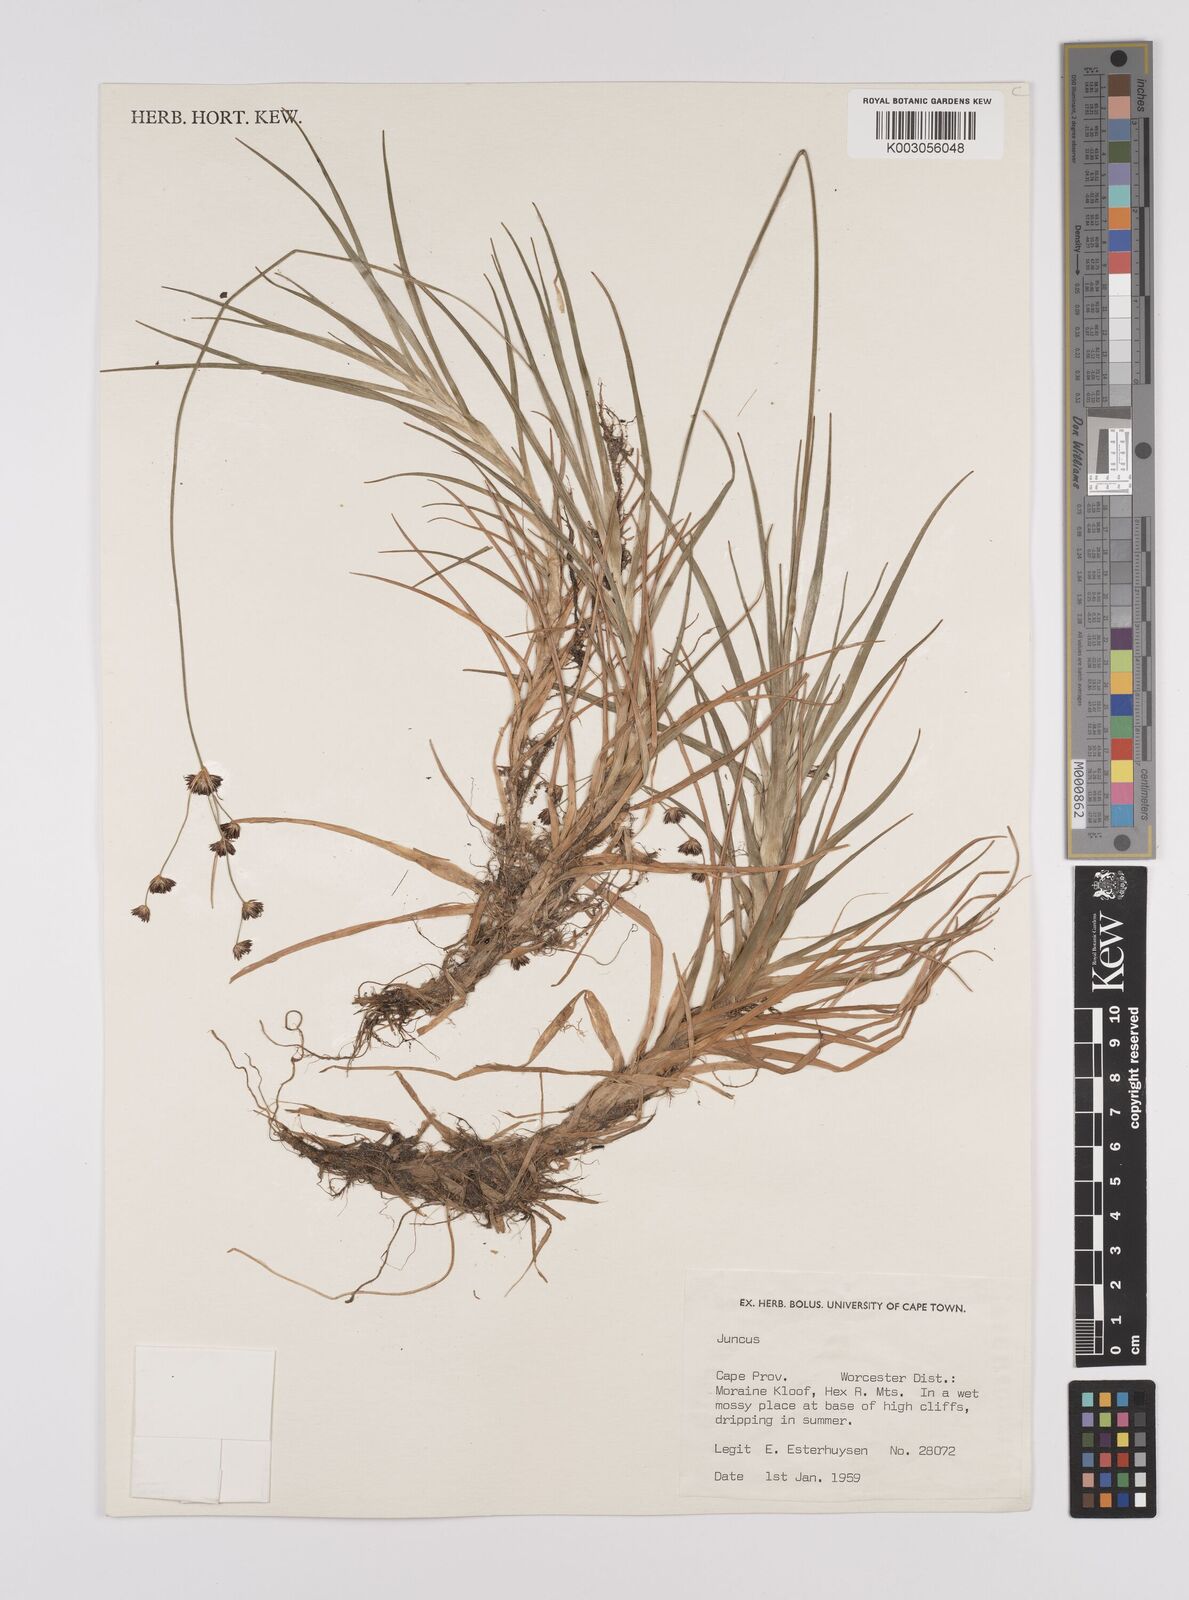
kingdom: Plantae
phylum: Tracheophyta
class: Liliopsida
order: Poales
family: Juncaceae
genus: Juncus
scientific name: Juncus lomatophyllus
